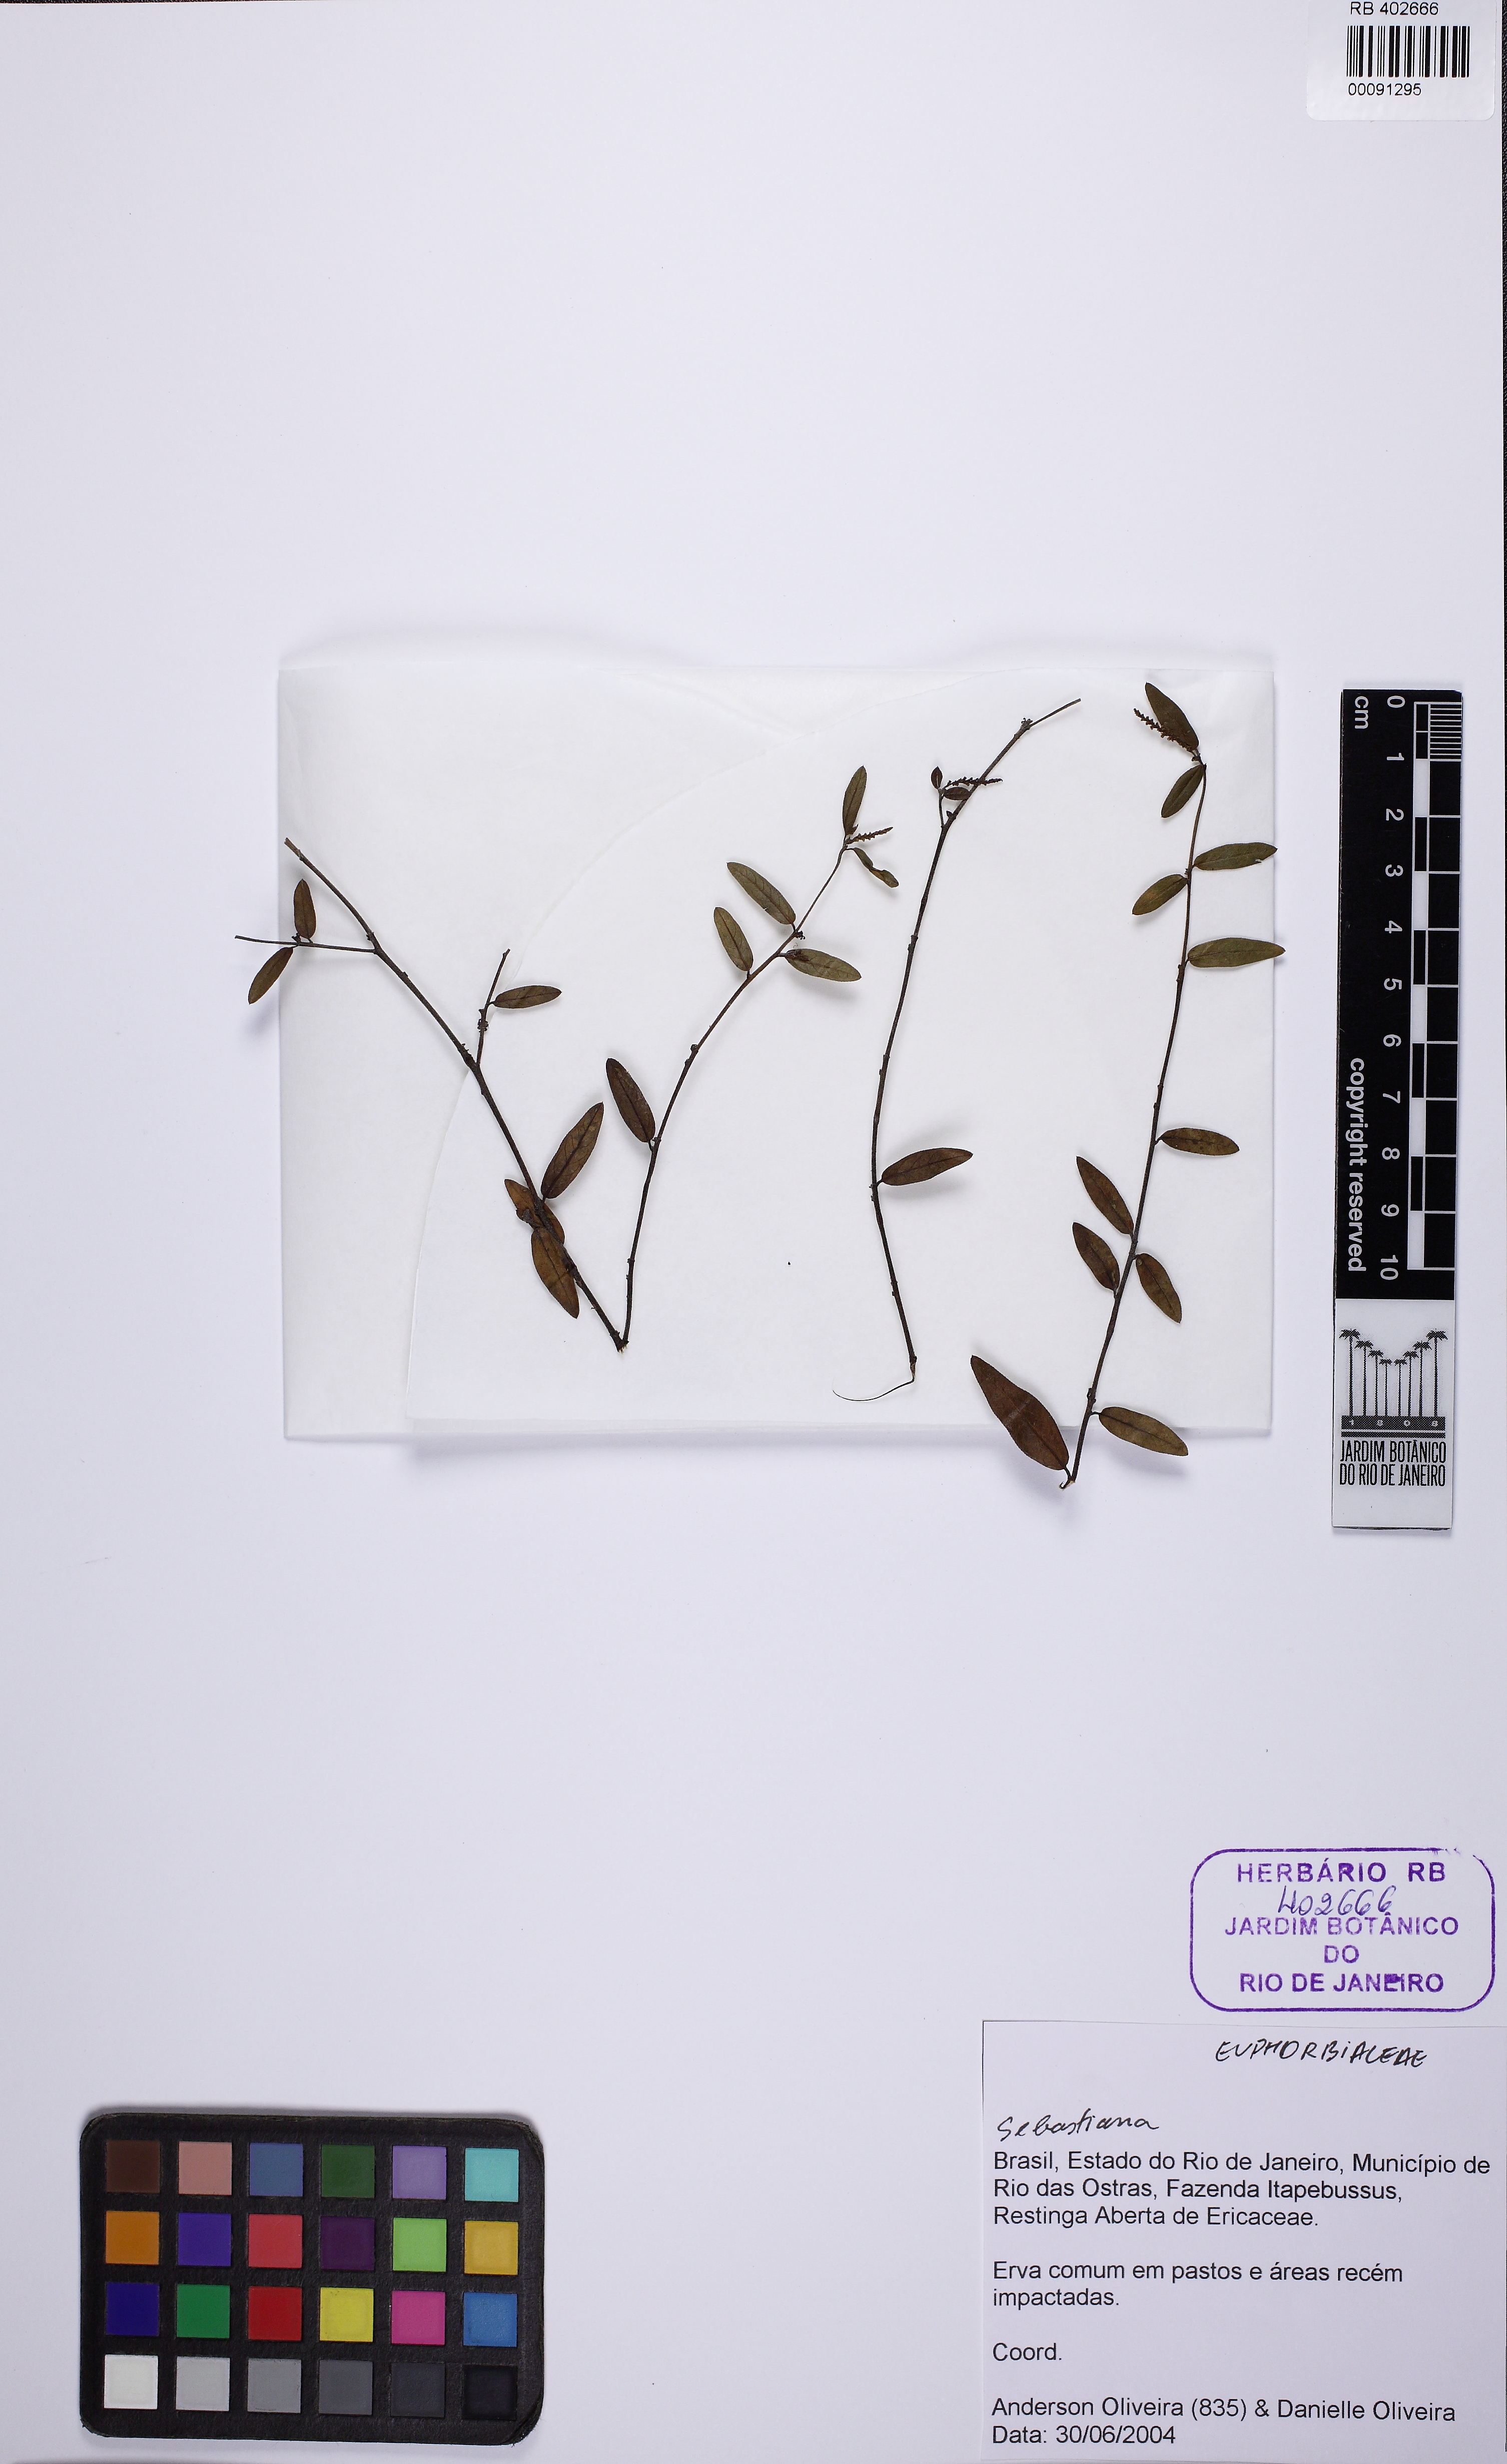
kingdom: Plantae
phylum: Tracheophyta
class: Magnoliopsida
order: Malpighiales
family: Euphorbiaceae
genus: Microstachys
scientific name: Microstachys
